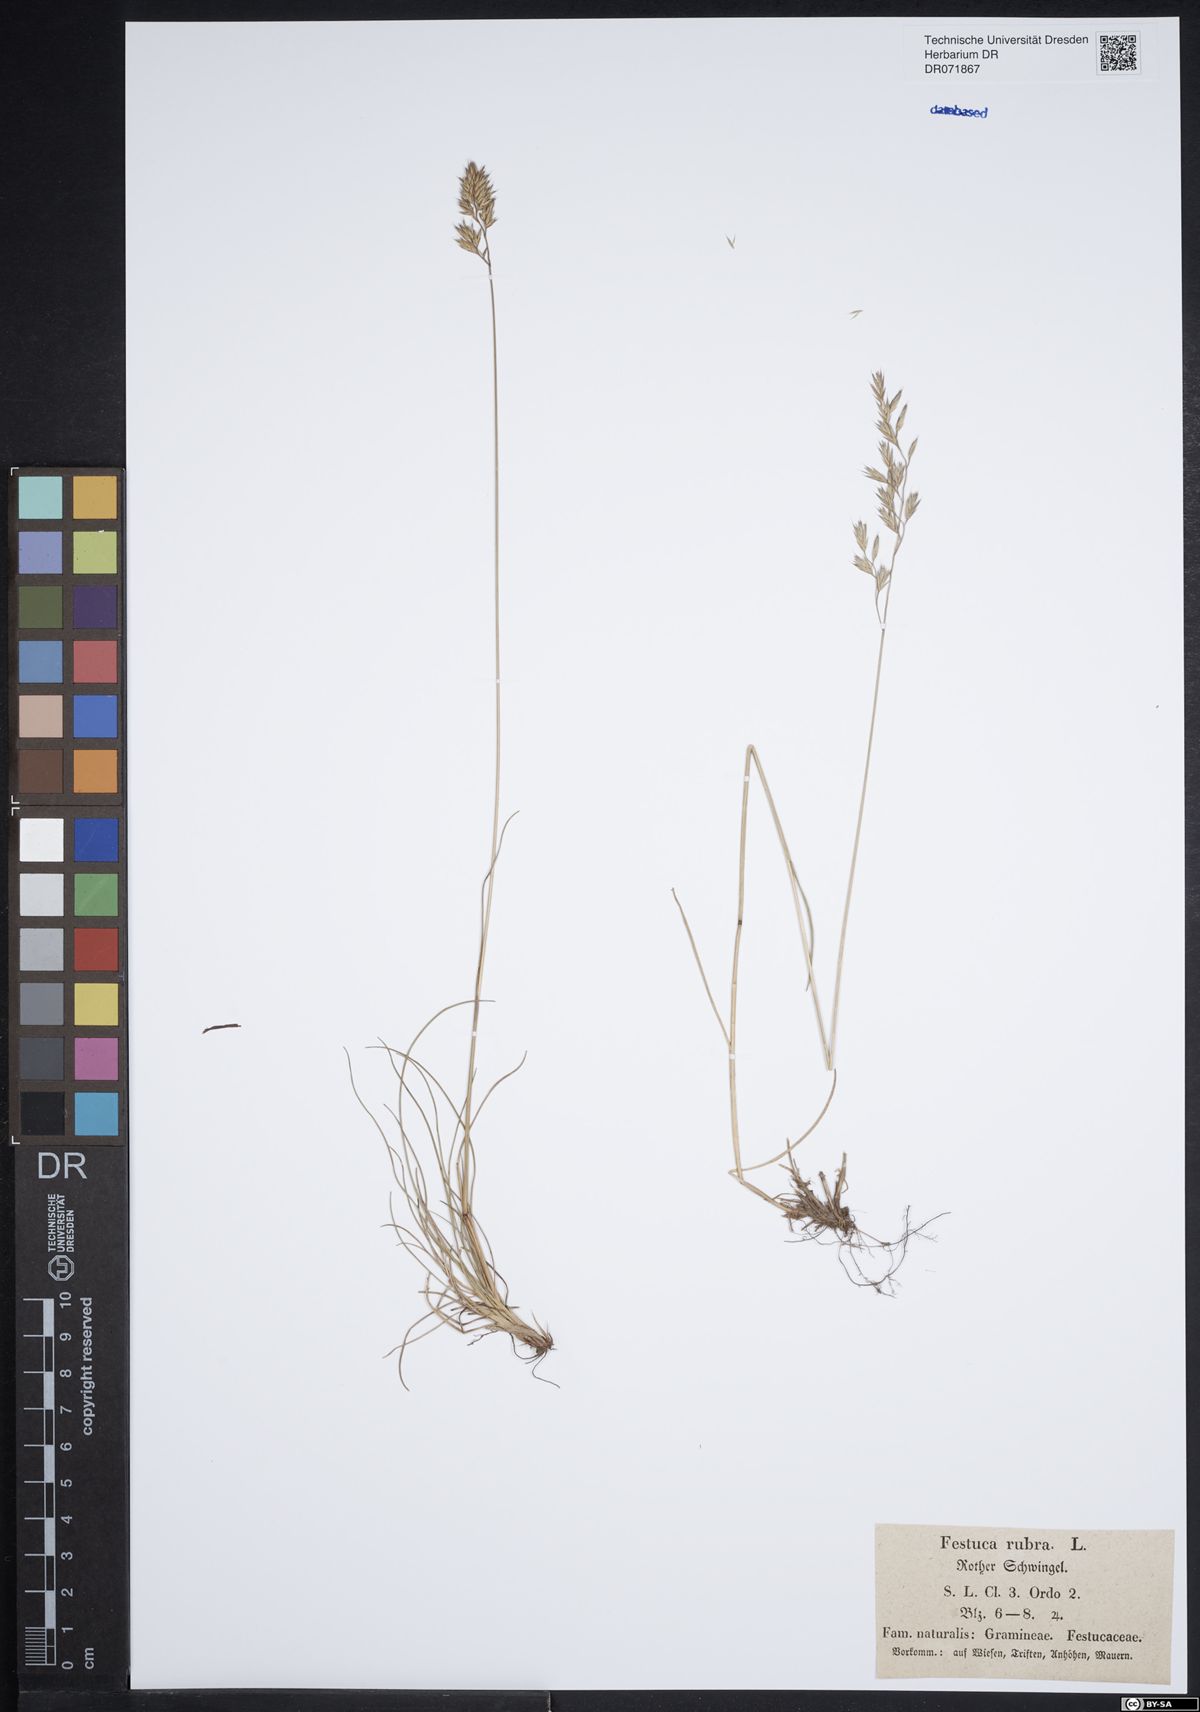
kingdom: Plantae
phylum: Tracheophyta
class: Liliopsida
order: Poales
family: Poaceae
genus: Festuca
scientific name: Festuca rubra
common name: Red fescue
